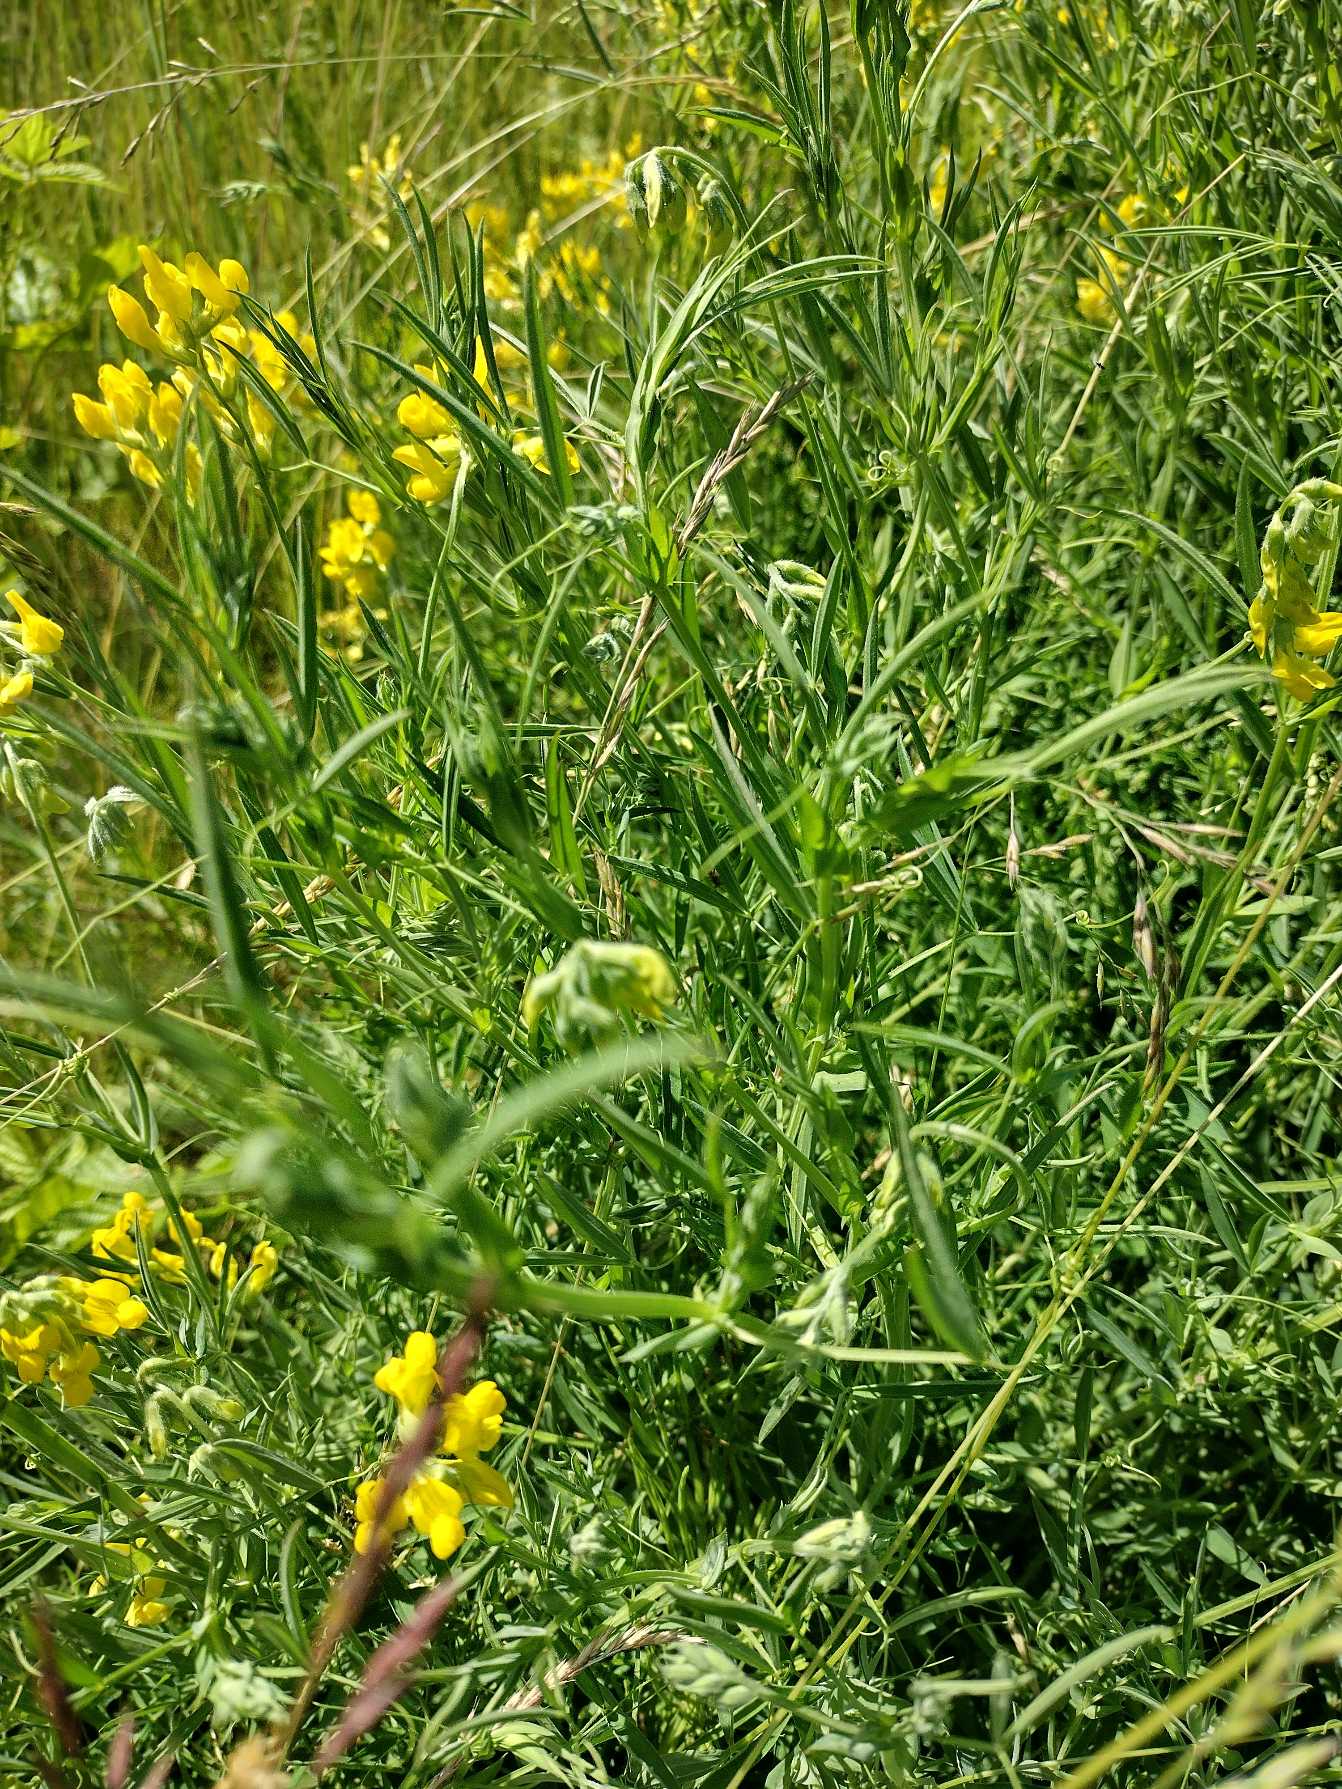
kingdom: Plantae
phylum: Tracheophyta
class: Magnoliopsida
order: Fabales
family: Fabaceae
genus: Lathyrus
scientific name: Lathyrus pratensis
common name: Gul fladbælg
